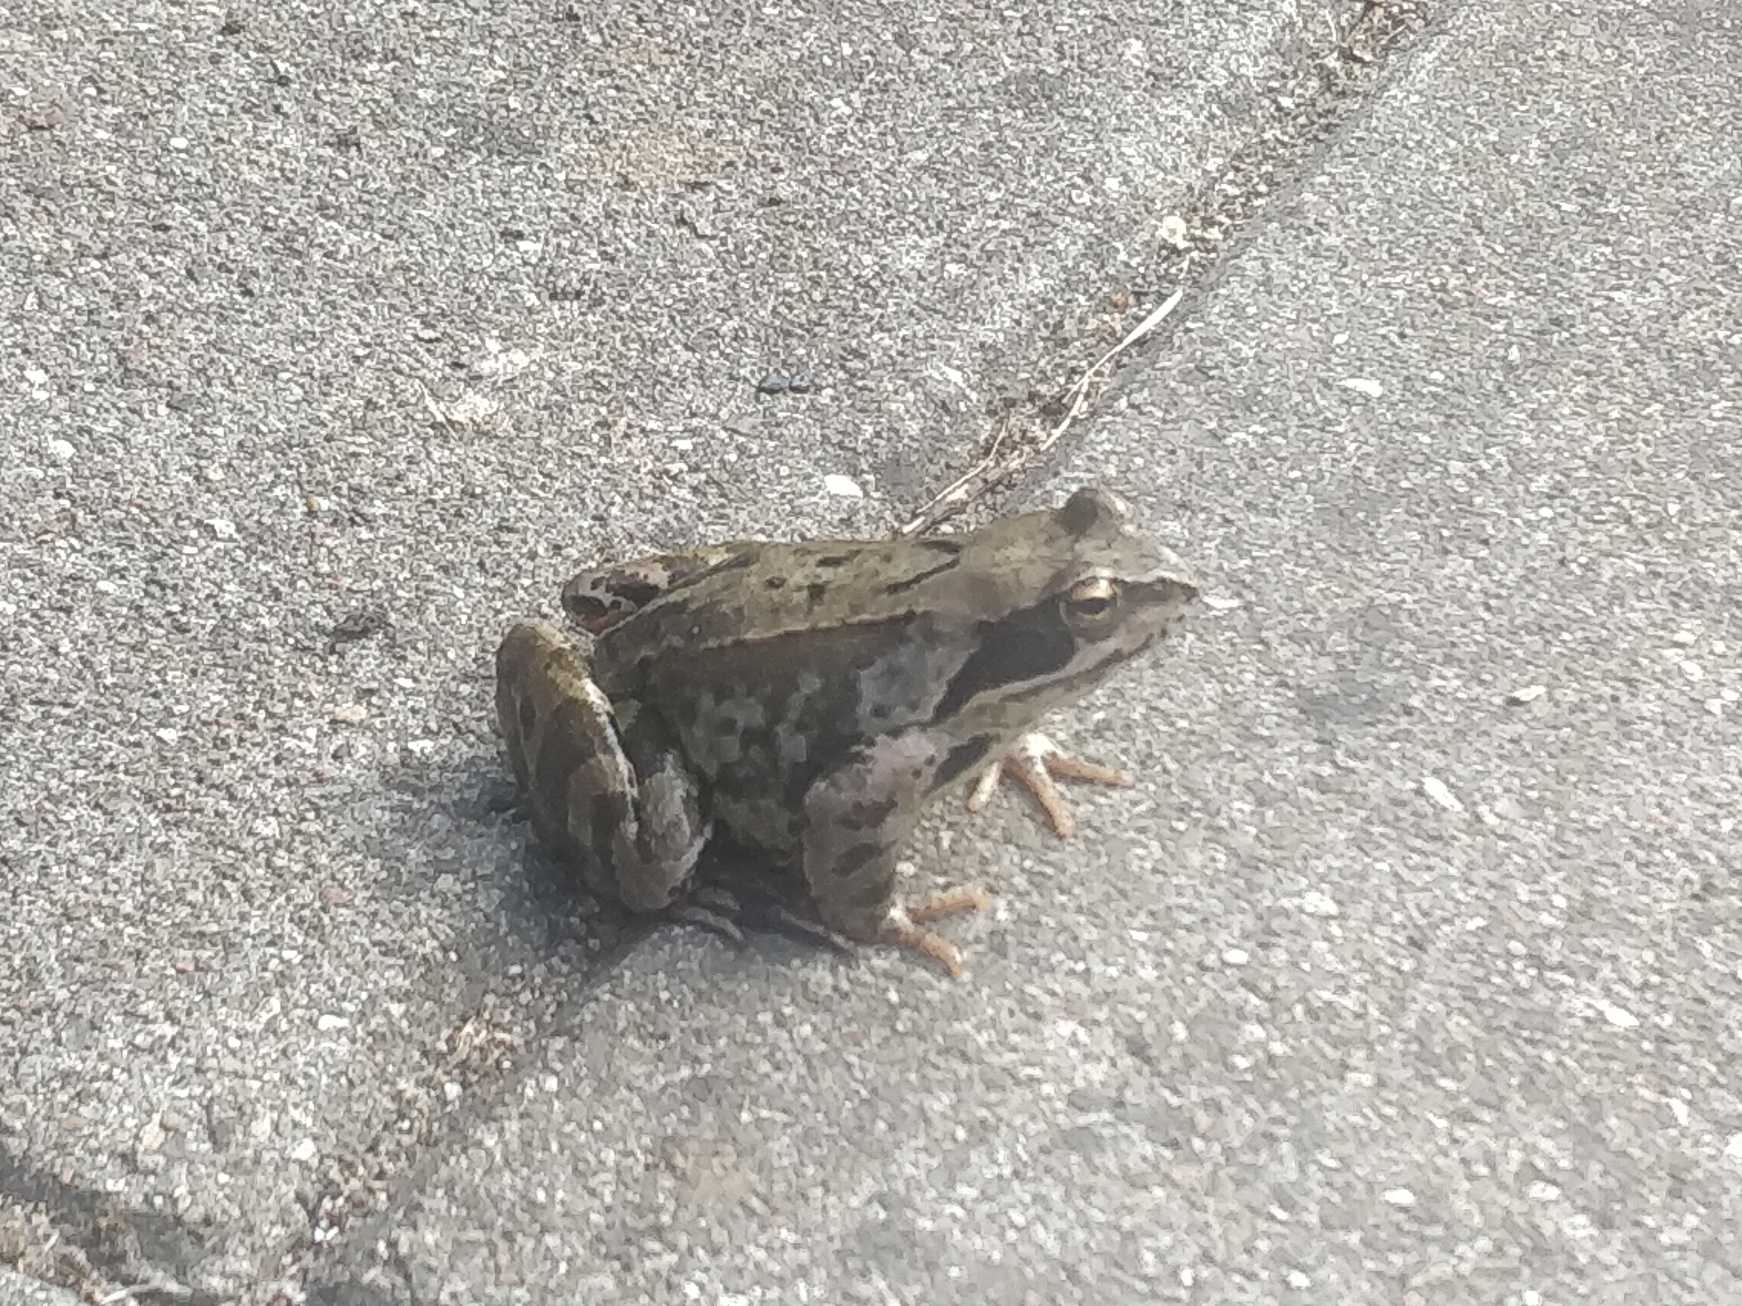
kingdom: Animalia
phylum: Chordata
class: Amphibia
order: Anura
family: Ranidae
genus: Rana
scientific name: Rana temporaria
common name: Butsnudet frø
